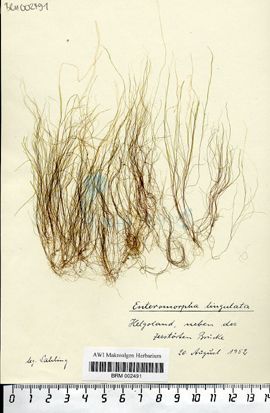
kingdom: Plantae
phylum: Chlorophyta
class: Ulvophyceae
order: Ulvales
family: Ulvaceae
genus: Ulva
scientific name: Ulva flexuosa
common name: Flexuous gutweed
